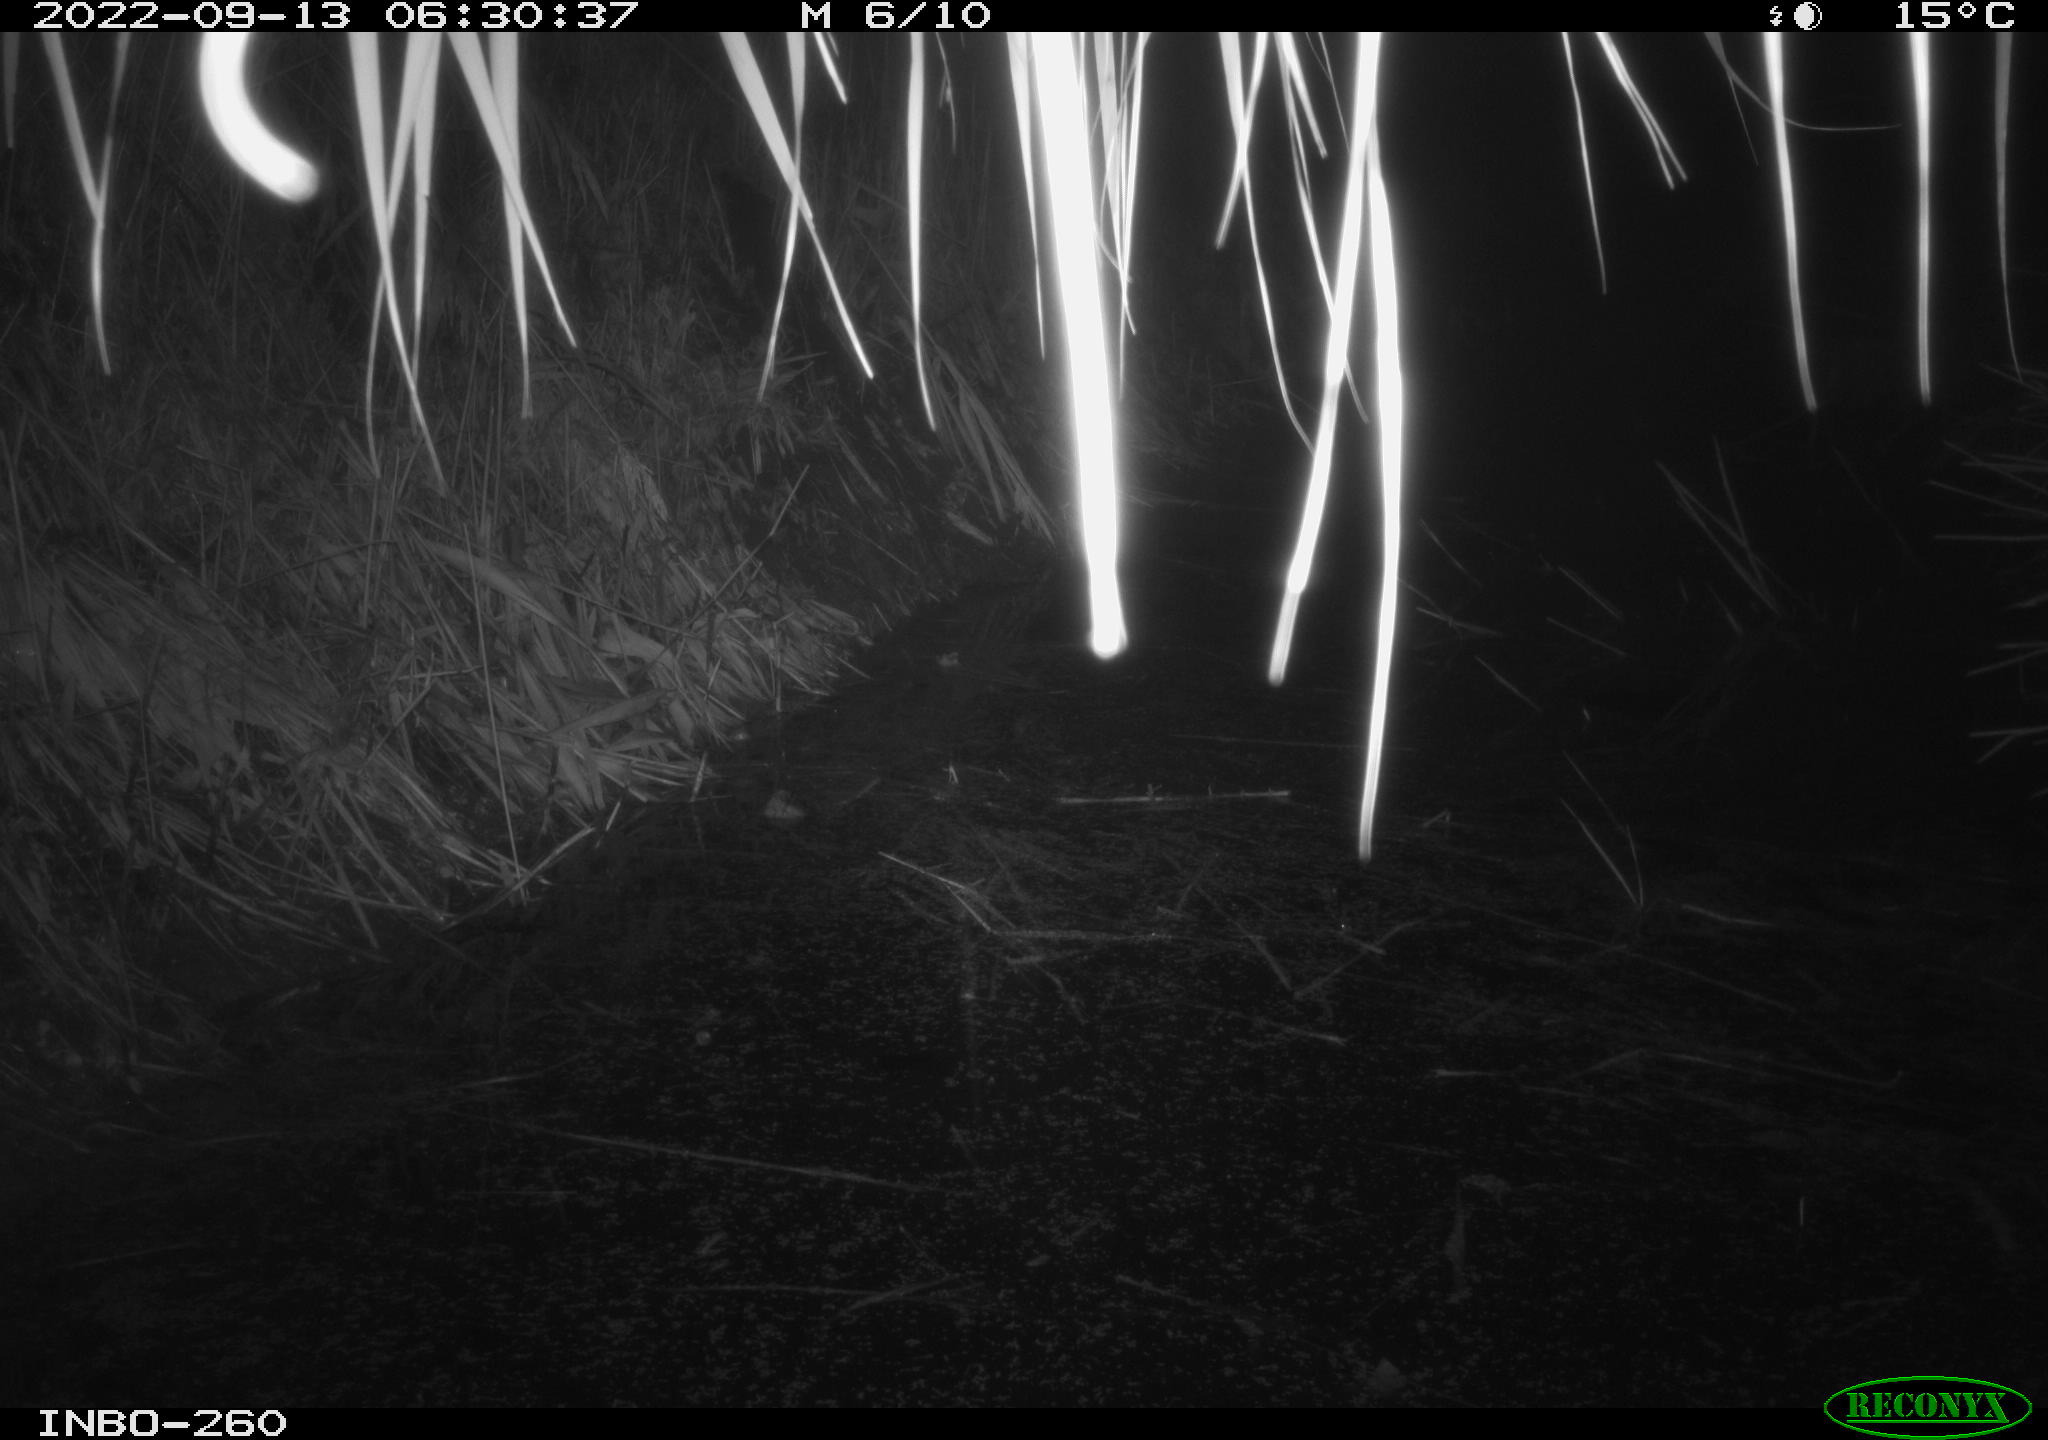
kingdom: Animalia
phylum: Chordata
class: Mammalia
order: Rodentia
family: Muridae
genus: Rattus
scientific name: Rattus norvegicus
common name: Brown rat
